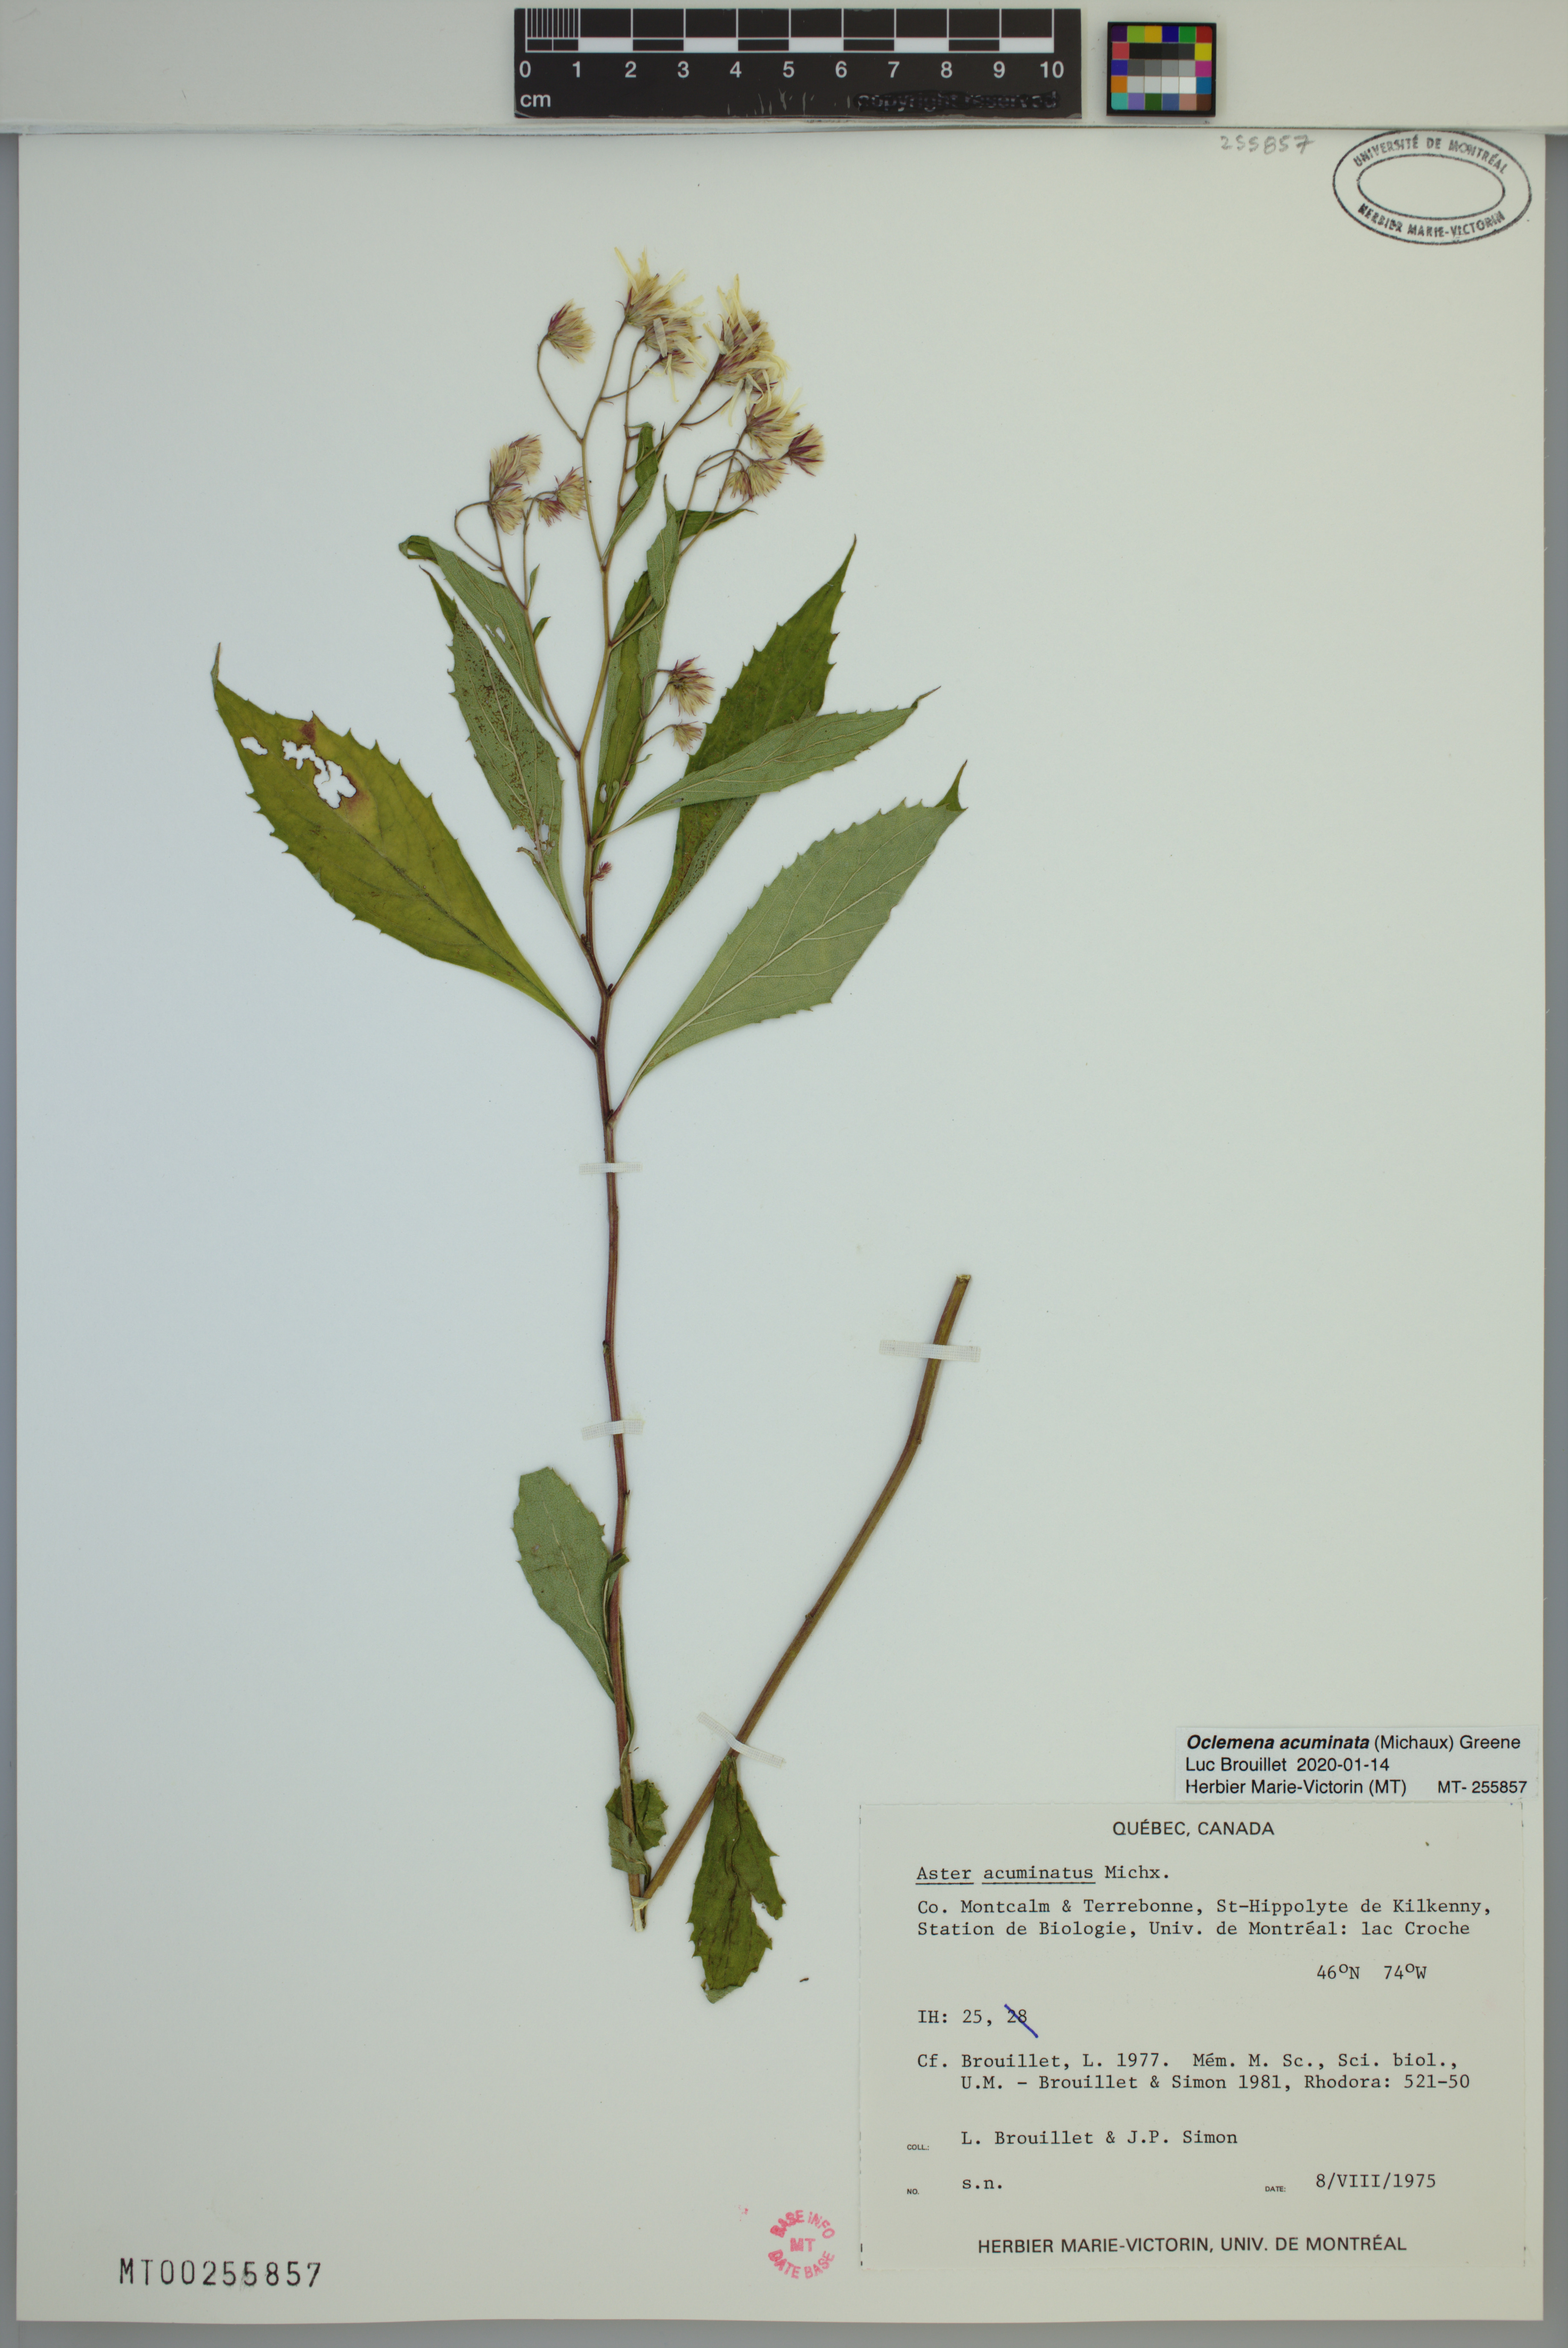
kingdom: Plantae
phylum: Tracheophyta
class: Magnoliopsida
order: Asterales
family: Asteraceae
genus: Oclemena
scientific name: Oclemena acuminata
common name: Mountain aster
